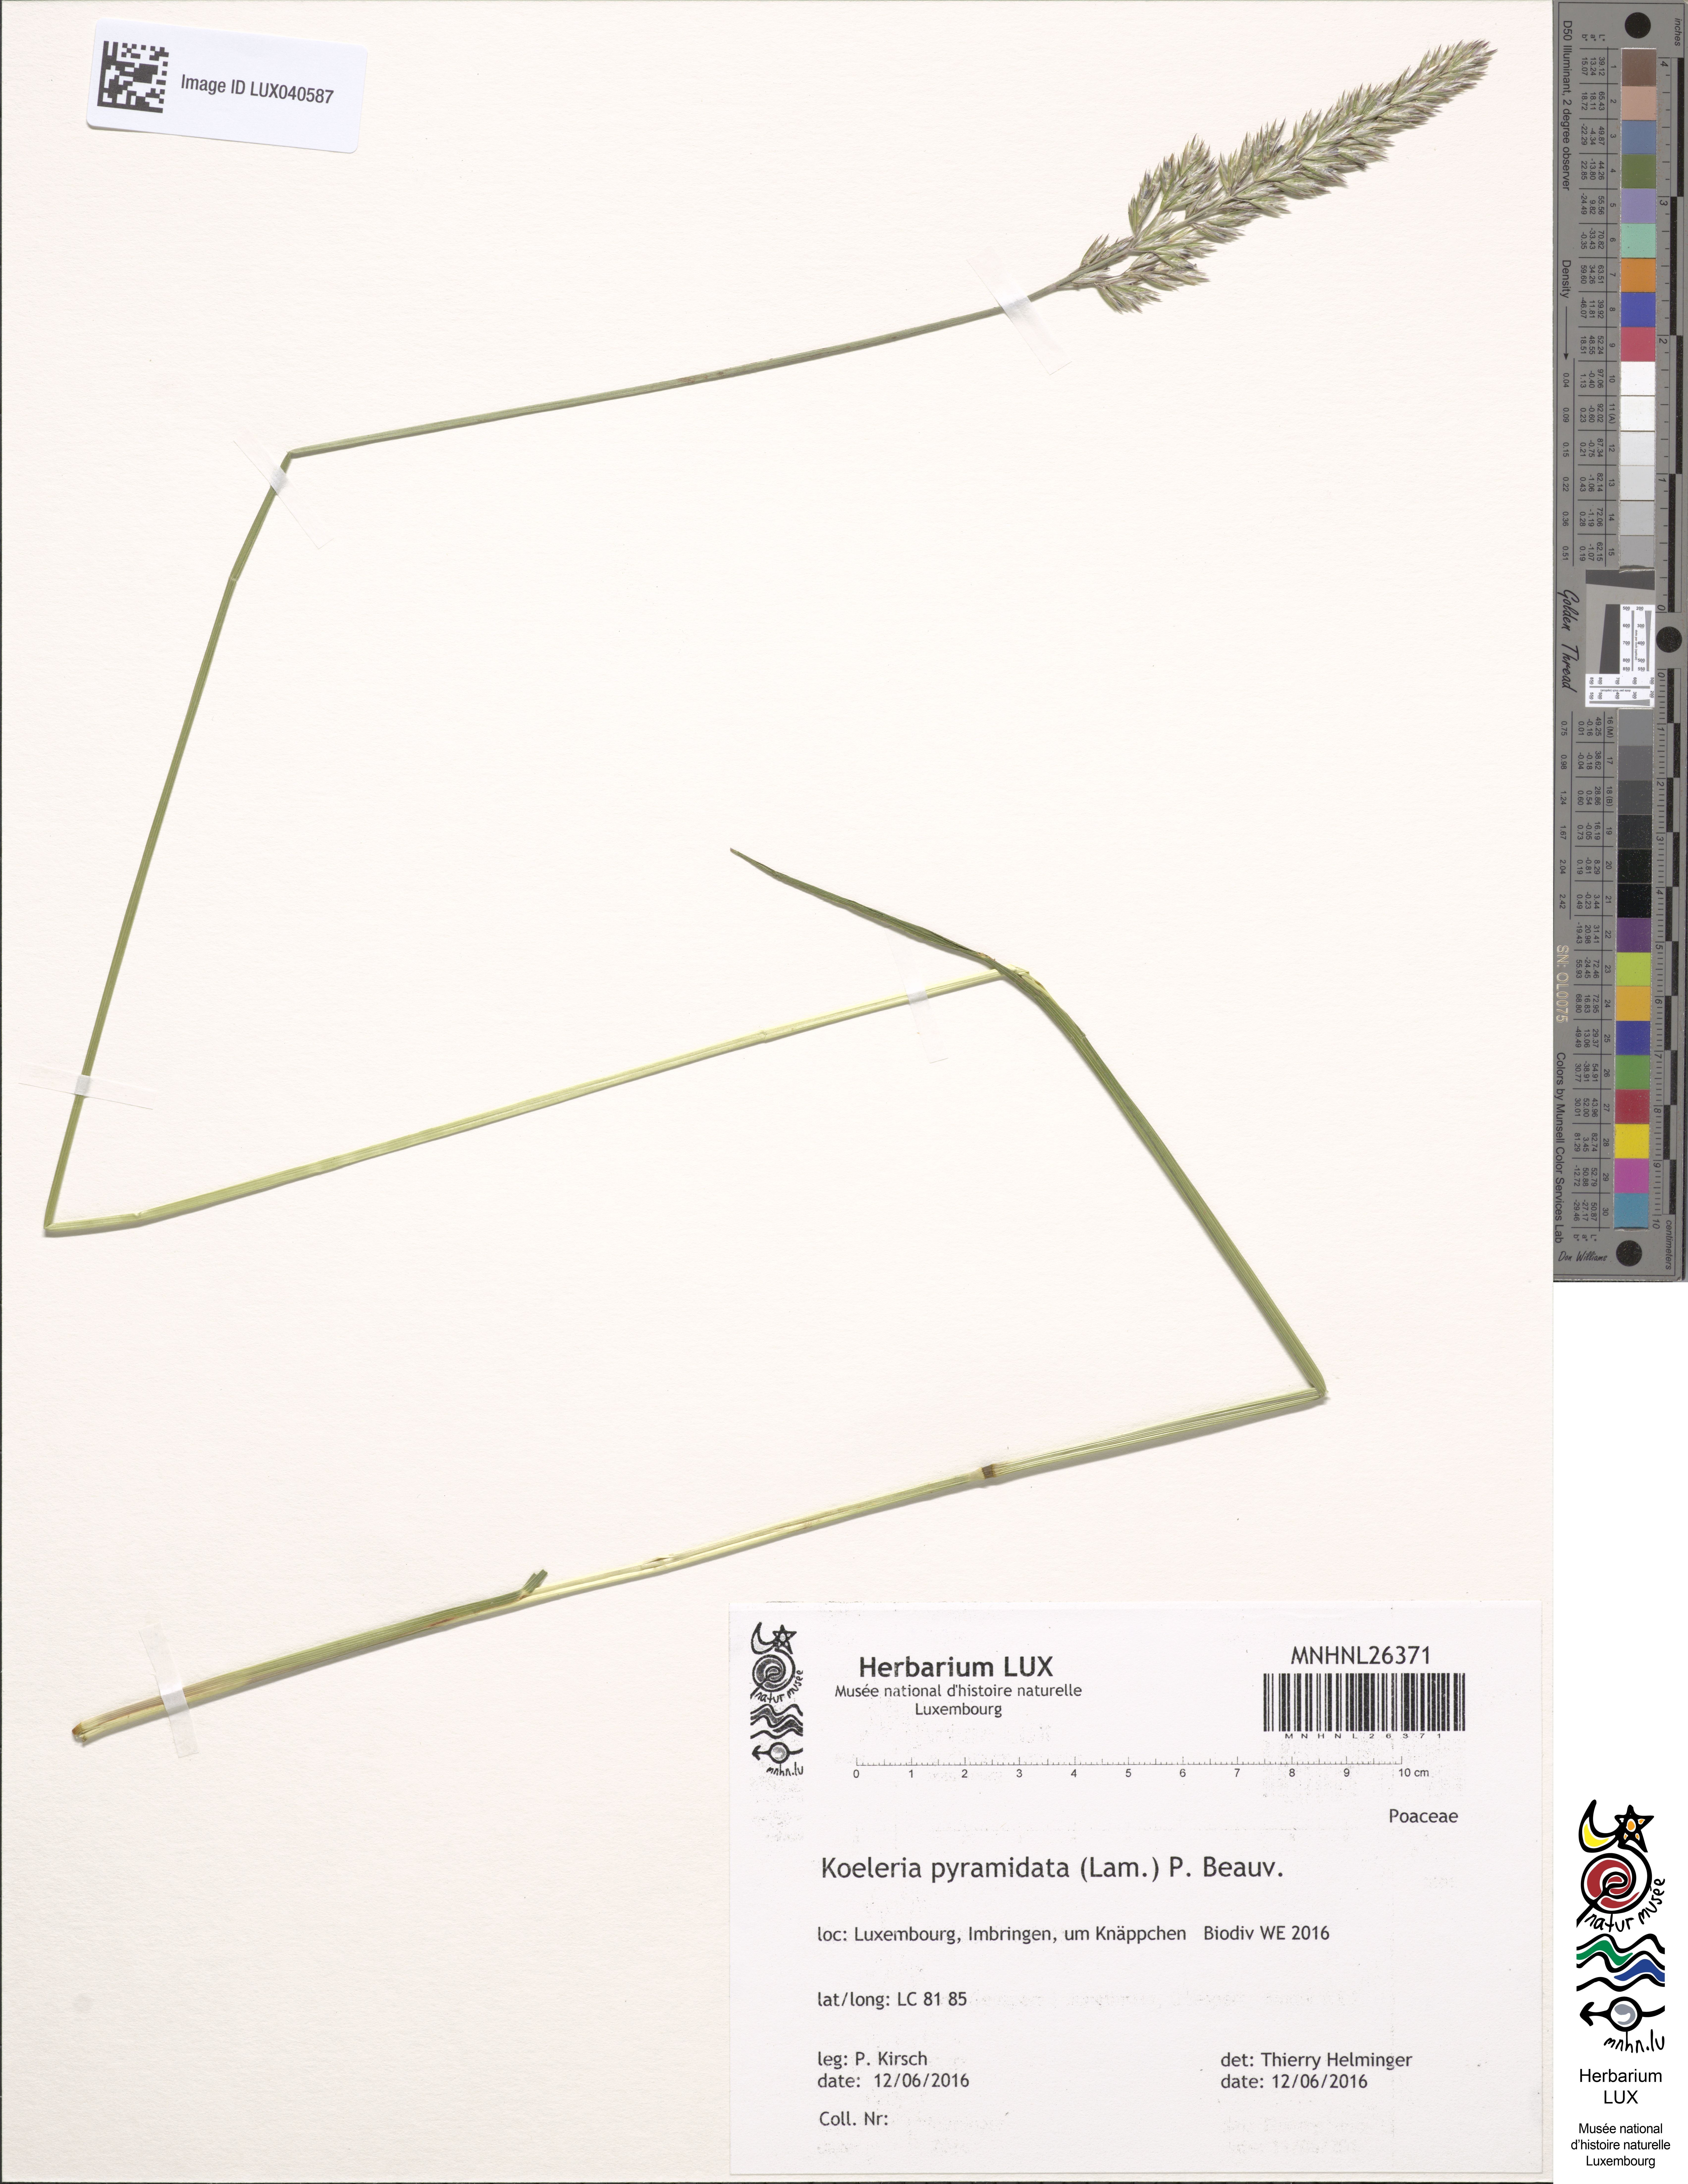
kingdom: Plantae
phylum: Tracheophyta
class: Liliopsida
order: Poales
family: Poaceae
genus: Koeleria
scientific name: Koeleria pyramidata
